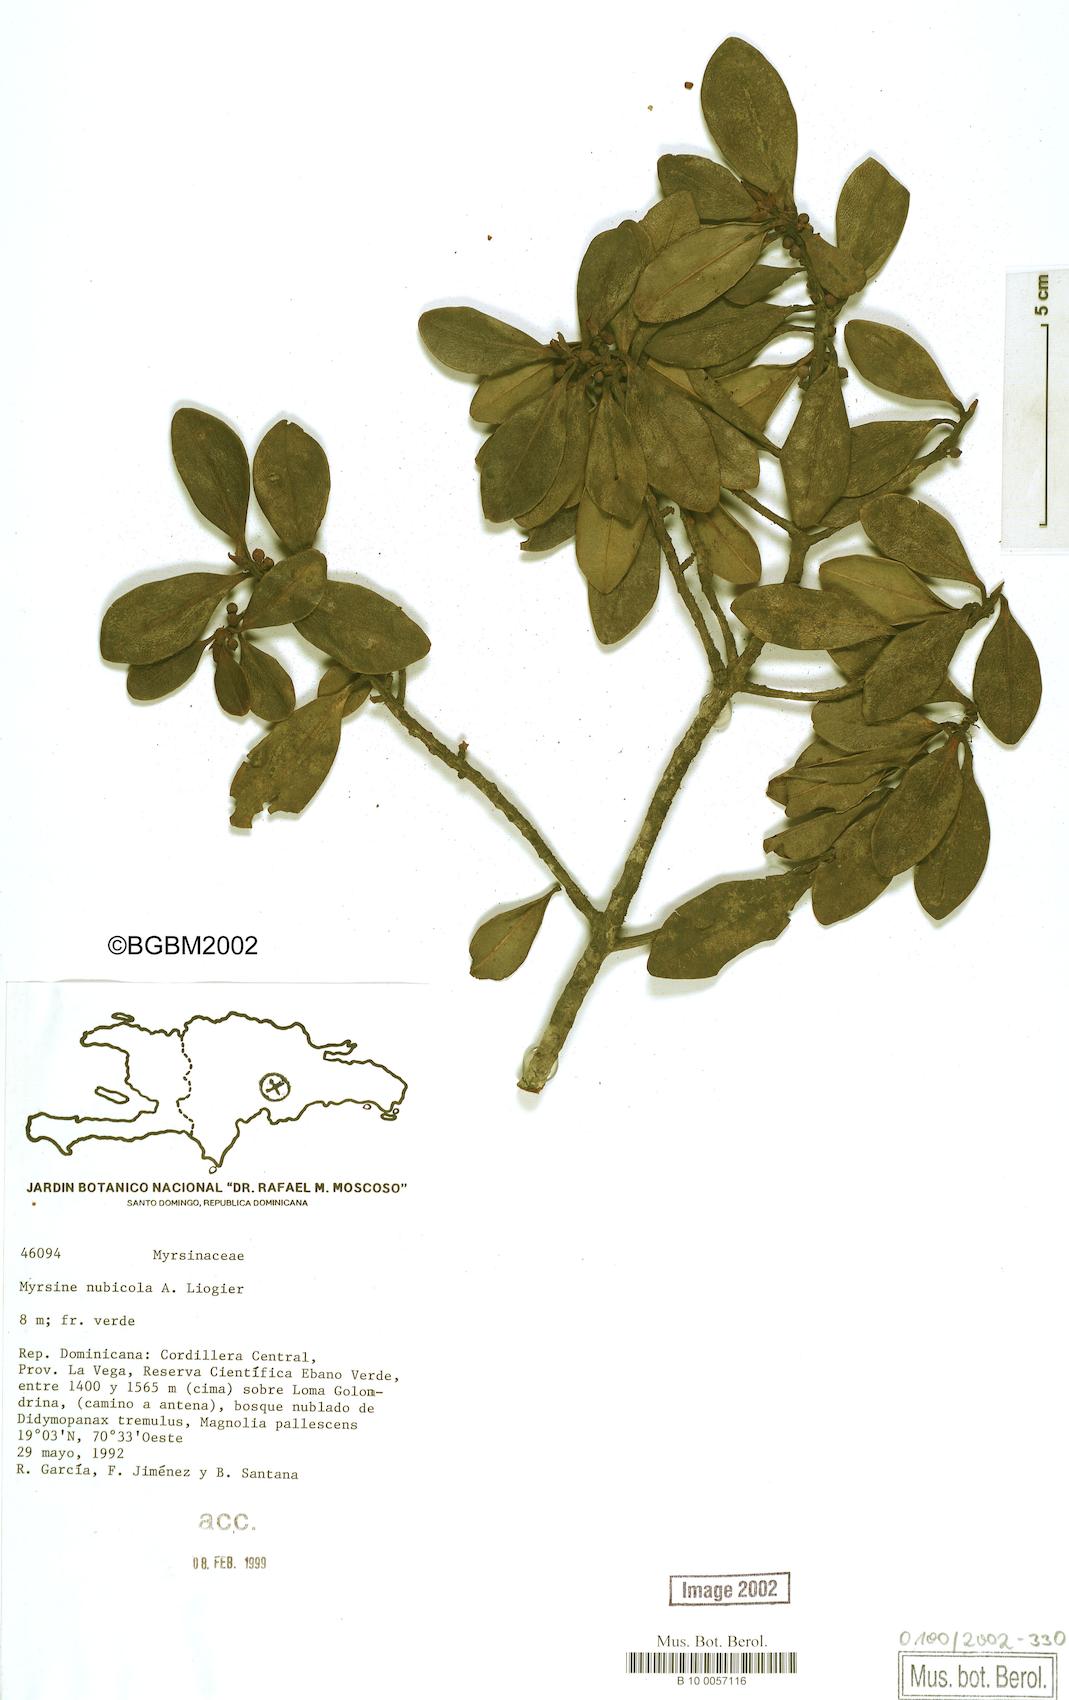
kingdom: Plantae
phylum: Tracheophyta
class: Magnoliopsida
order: Ericales
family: Primulaceae
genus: Myrsine
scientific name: Myrsine nubicola
